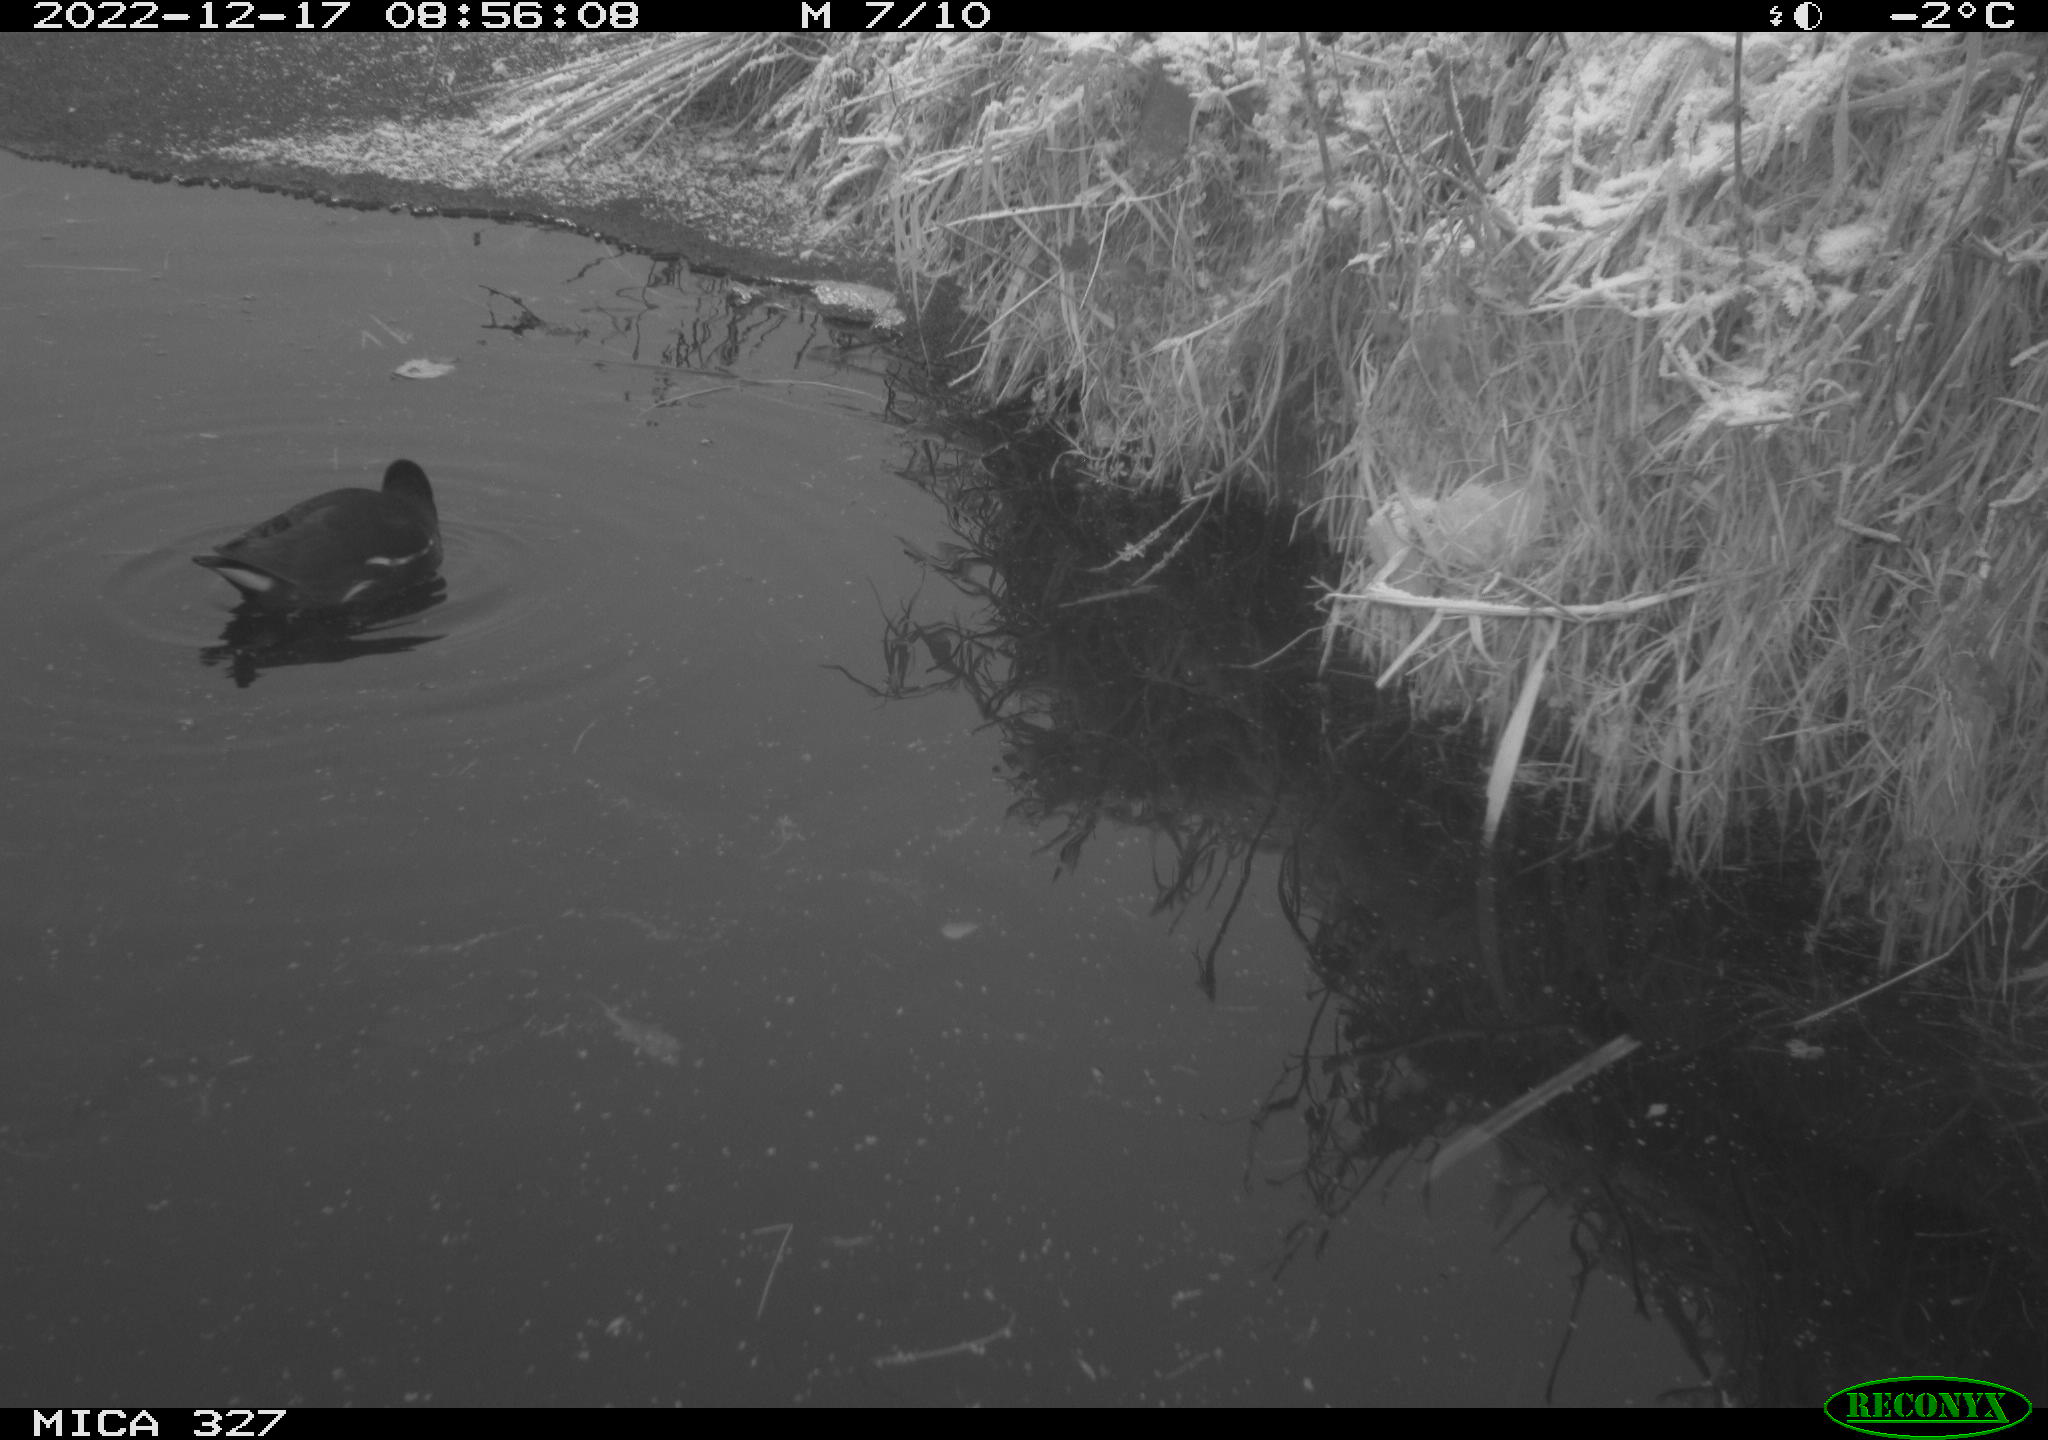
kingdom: Animalia
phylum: Chordata
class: Aves
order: Gruiformes
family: Rallidae
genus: Gallinula
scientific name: Gallinula chloropus
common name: Common moorhen
